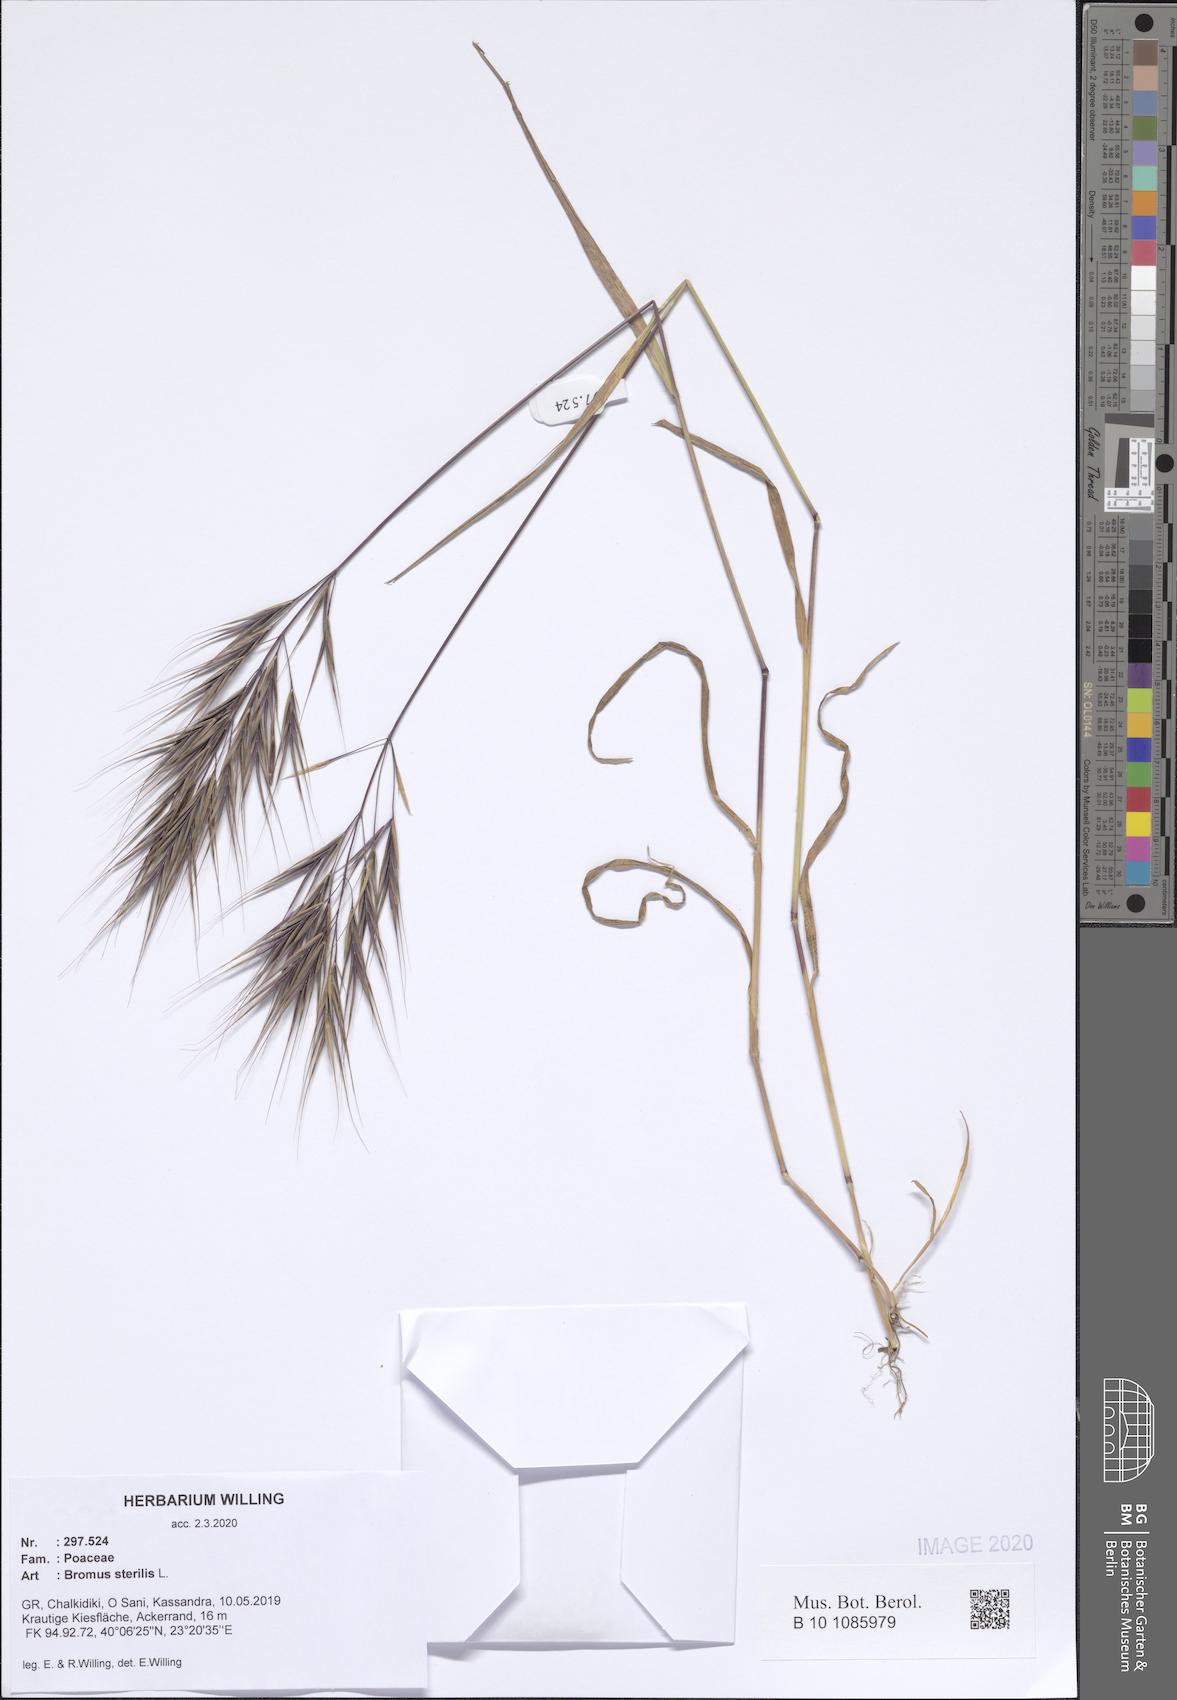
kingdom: Plantae
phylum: Tracheophyta
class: Liliopsida
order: Poales
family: Poaceae
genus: Bromus
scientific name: Bromus sterilis
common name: Poverty brome
